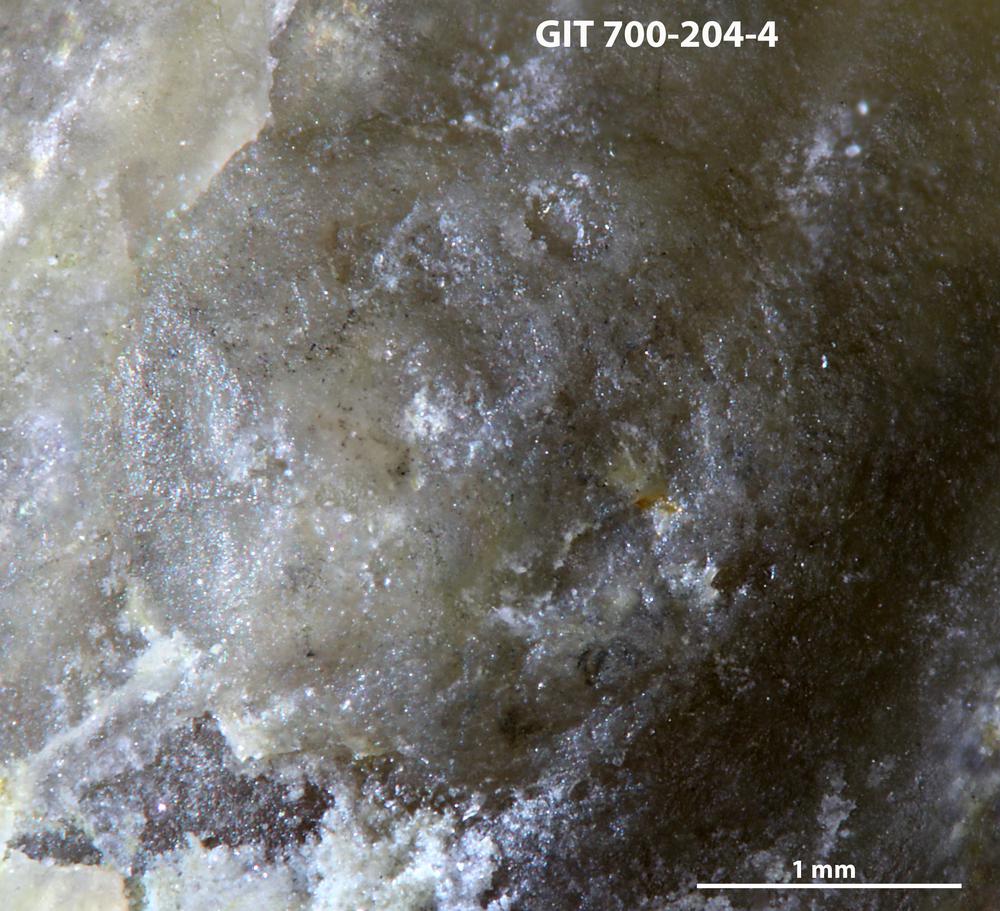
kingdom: Animalia
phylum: Brachiopoda
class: Craniata
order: Craniida
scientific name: Craniida
